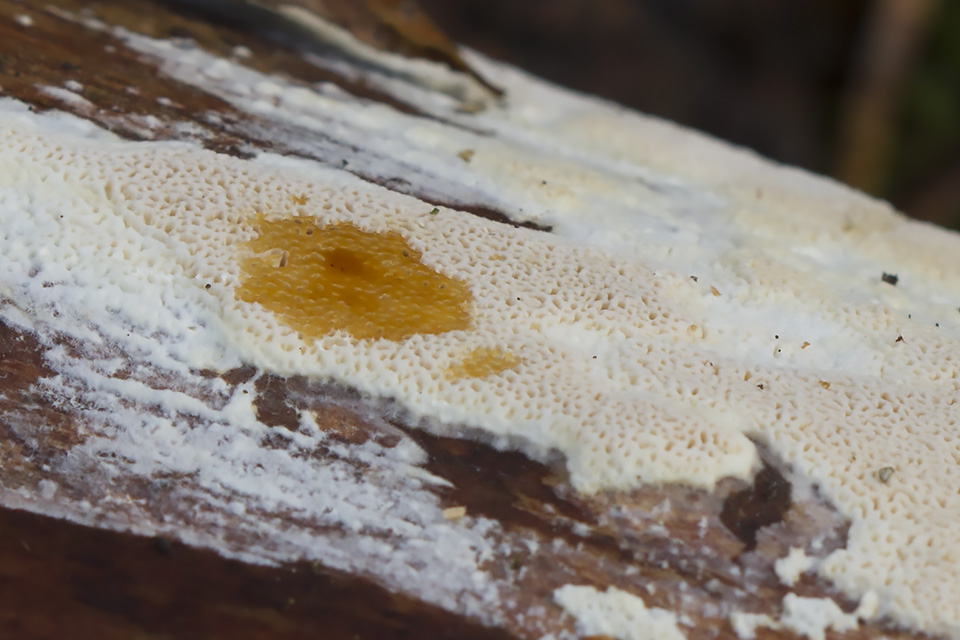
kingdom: Fungi
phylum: Basidiomycota
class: Agaricomycetes
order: Polyporales
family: Gelatoporiaceae
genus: Cinereomyces
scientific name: Cinereomyces lindbladii
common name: almindelig gråporesvamp
